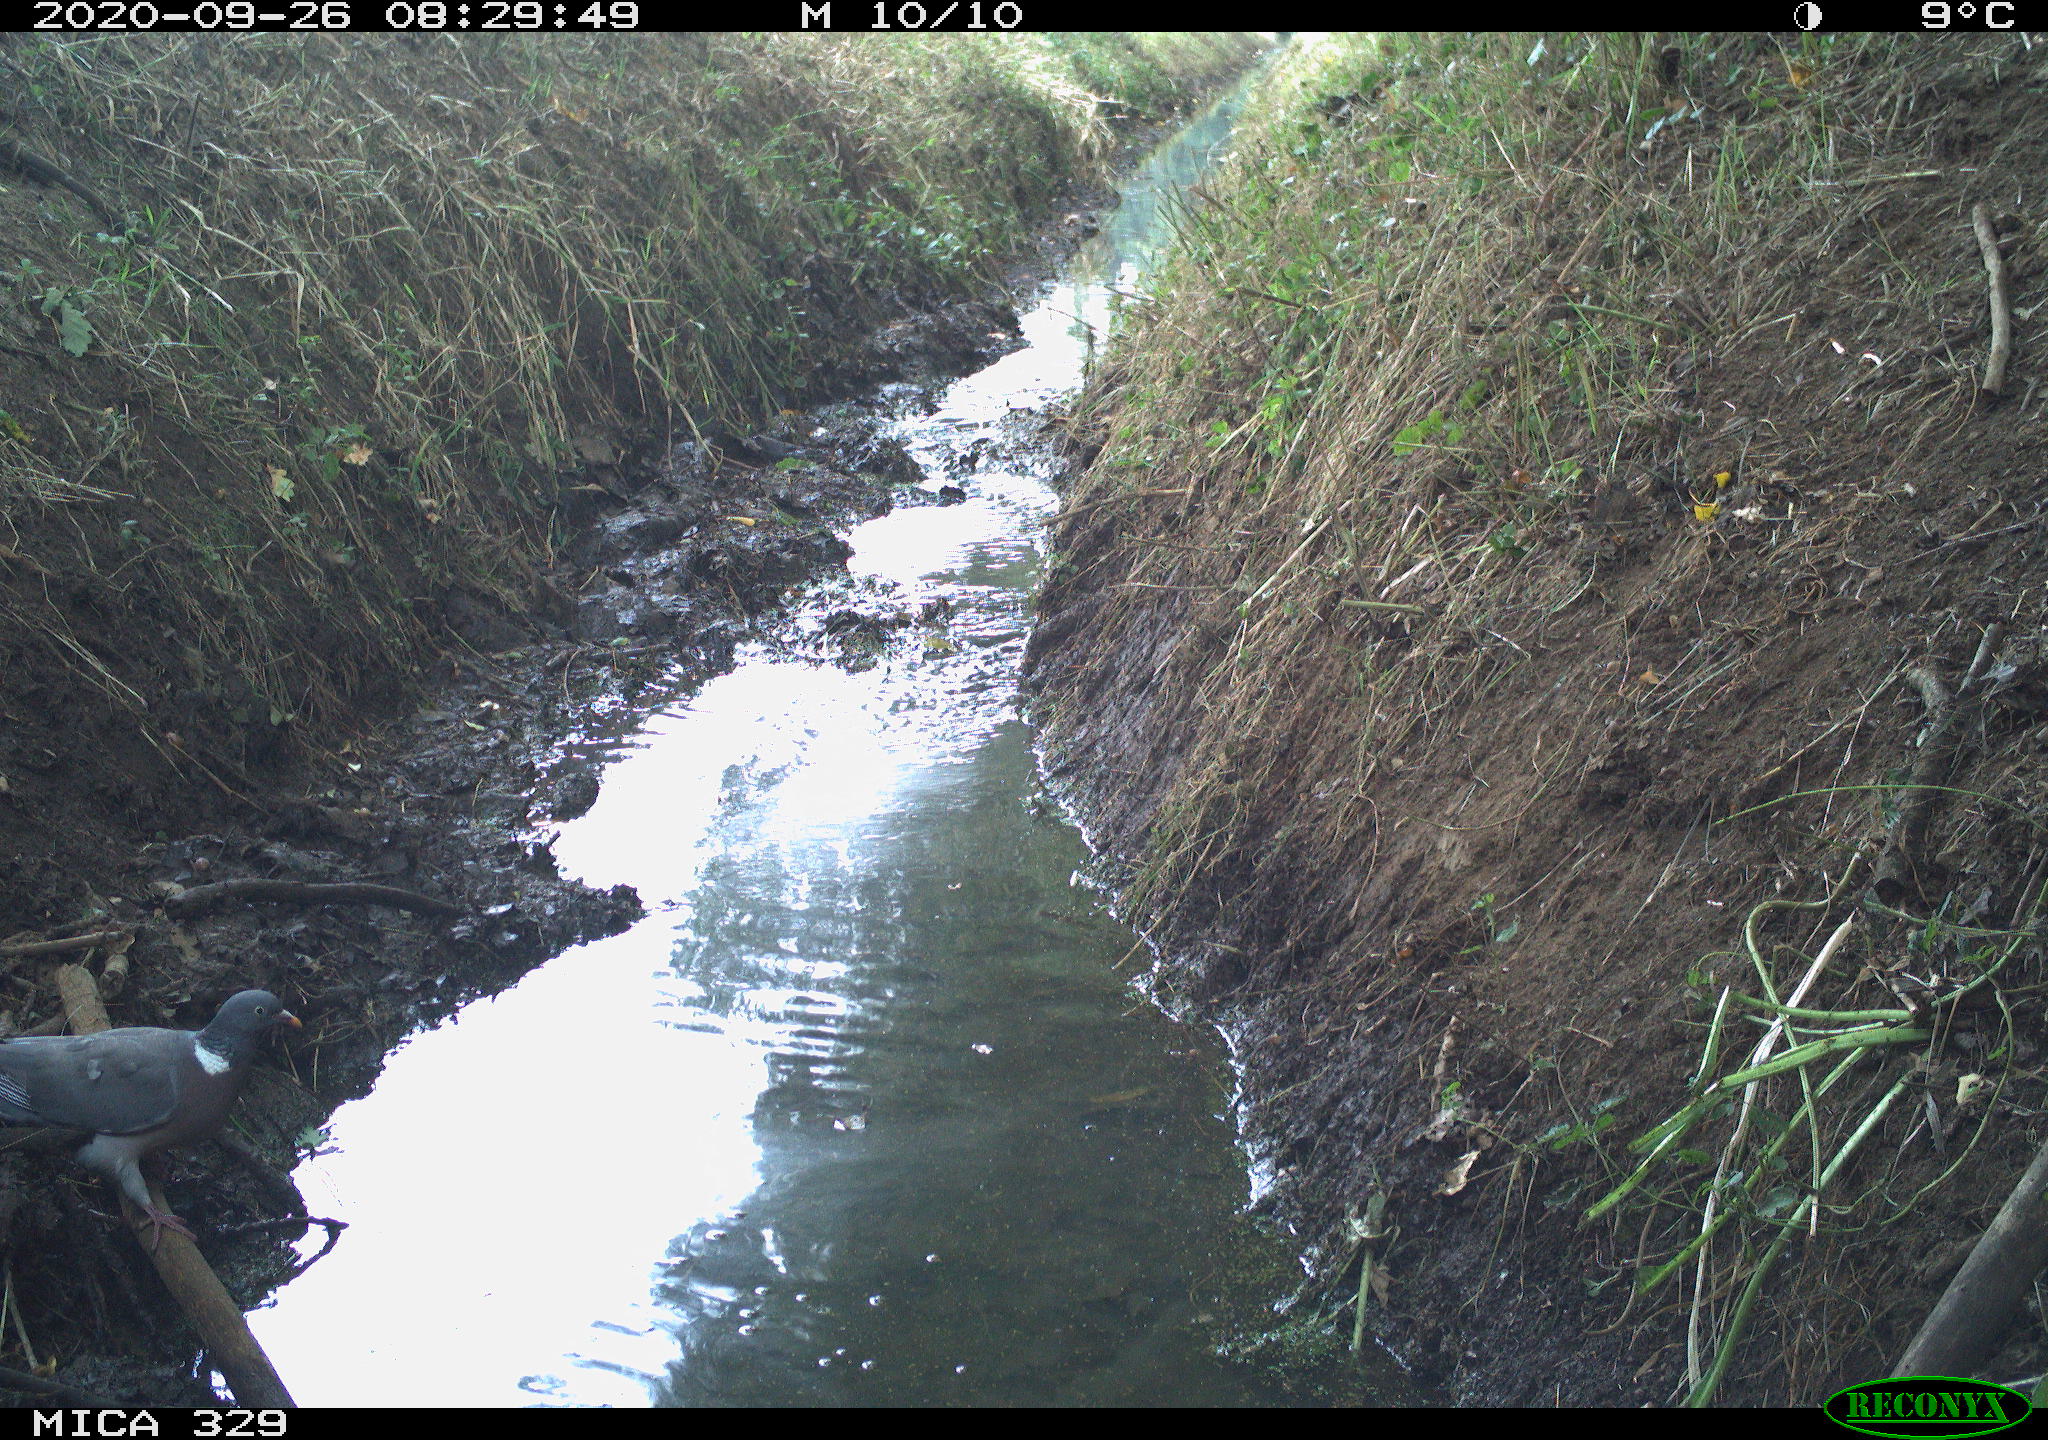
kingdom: Animalia
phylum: Chordata
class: Aves
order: Columbiformes
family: Columbidae
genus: Columba
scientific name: Columba palumbus
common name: Common wood pigeon
